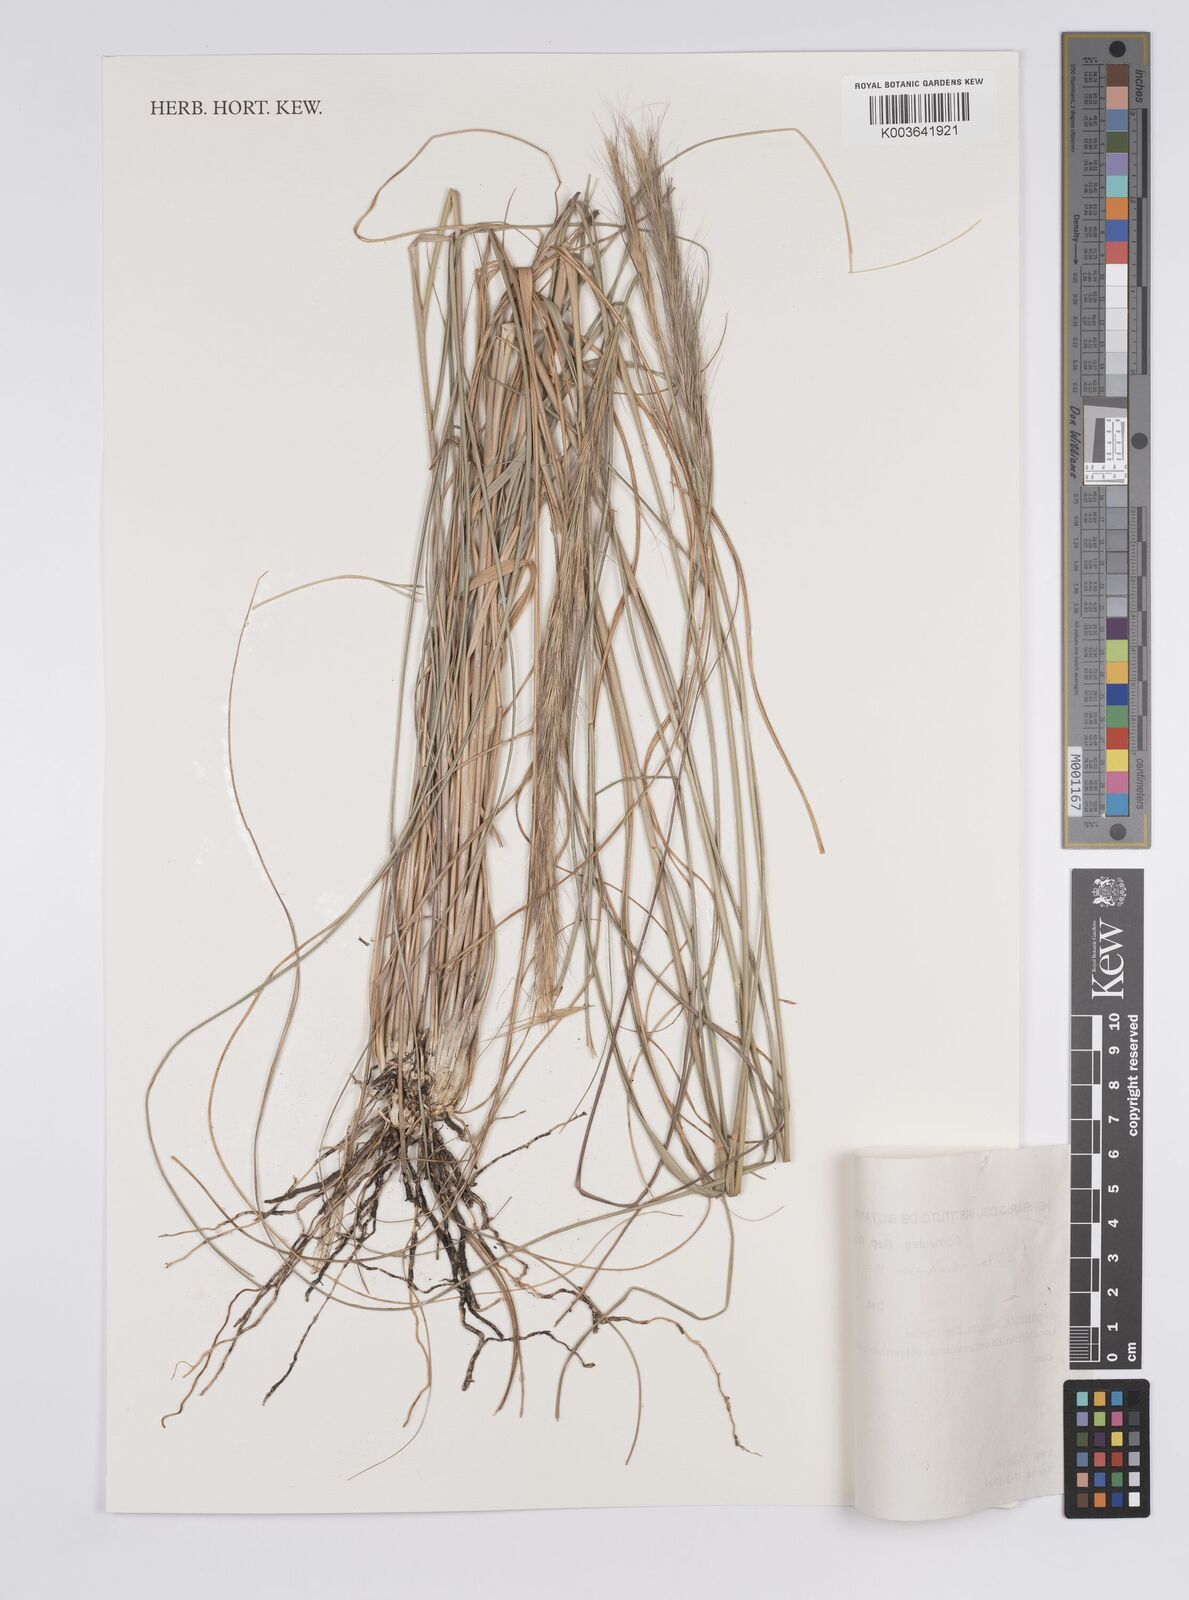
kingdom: Plantae
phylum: Tracheophyta
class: Liliopsida
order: Poales
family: Poaceae
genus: Aristida
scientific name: Aristida achalensis
